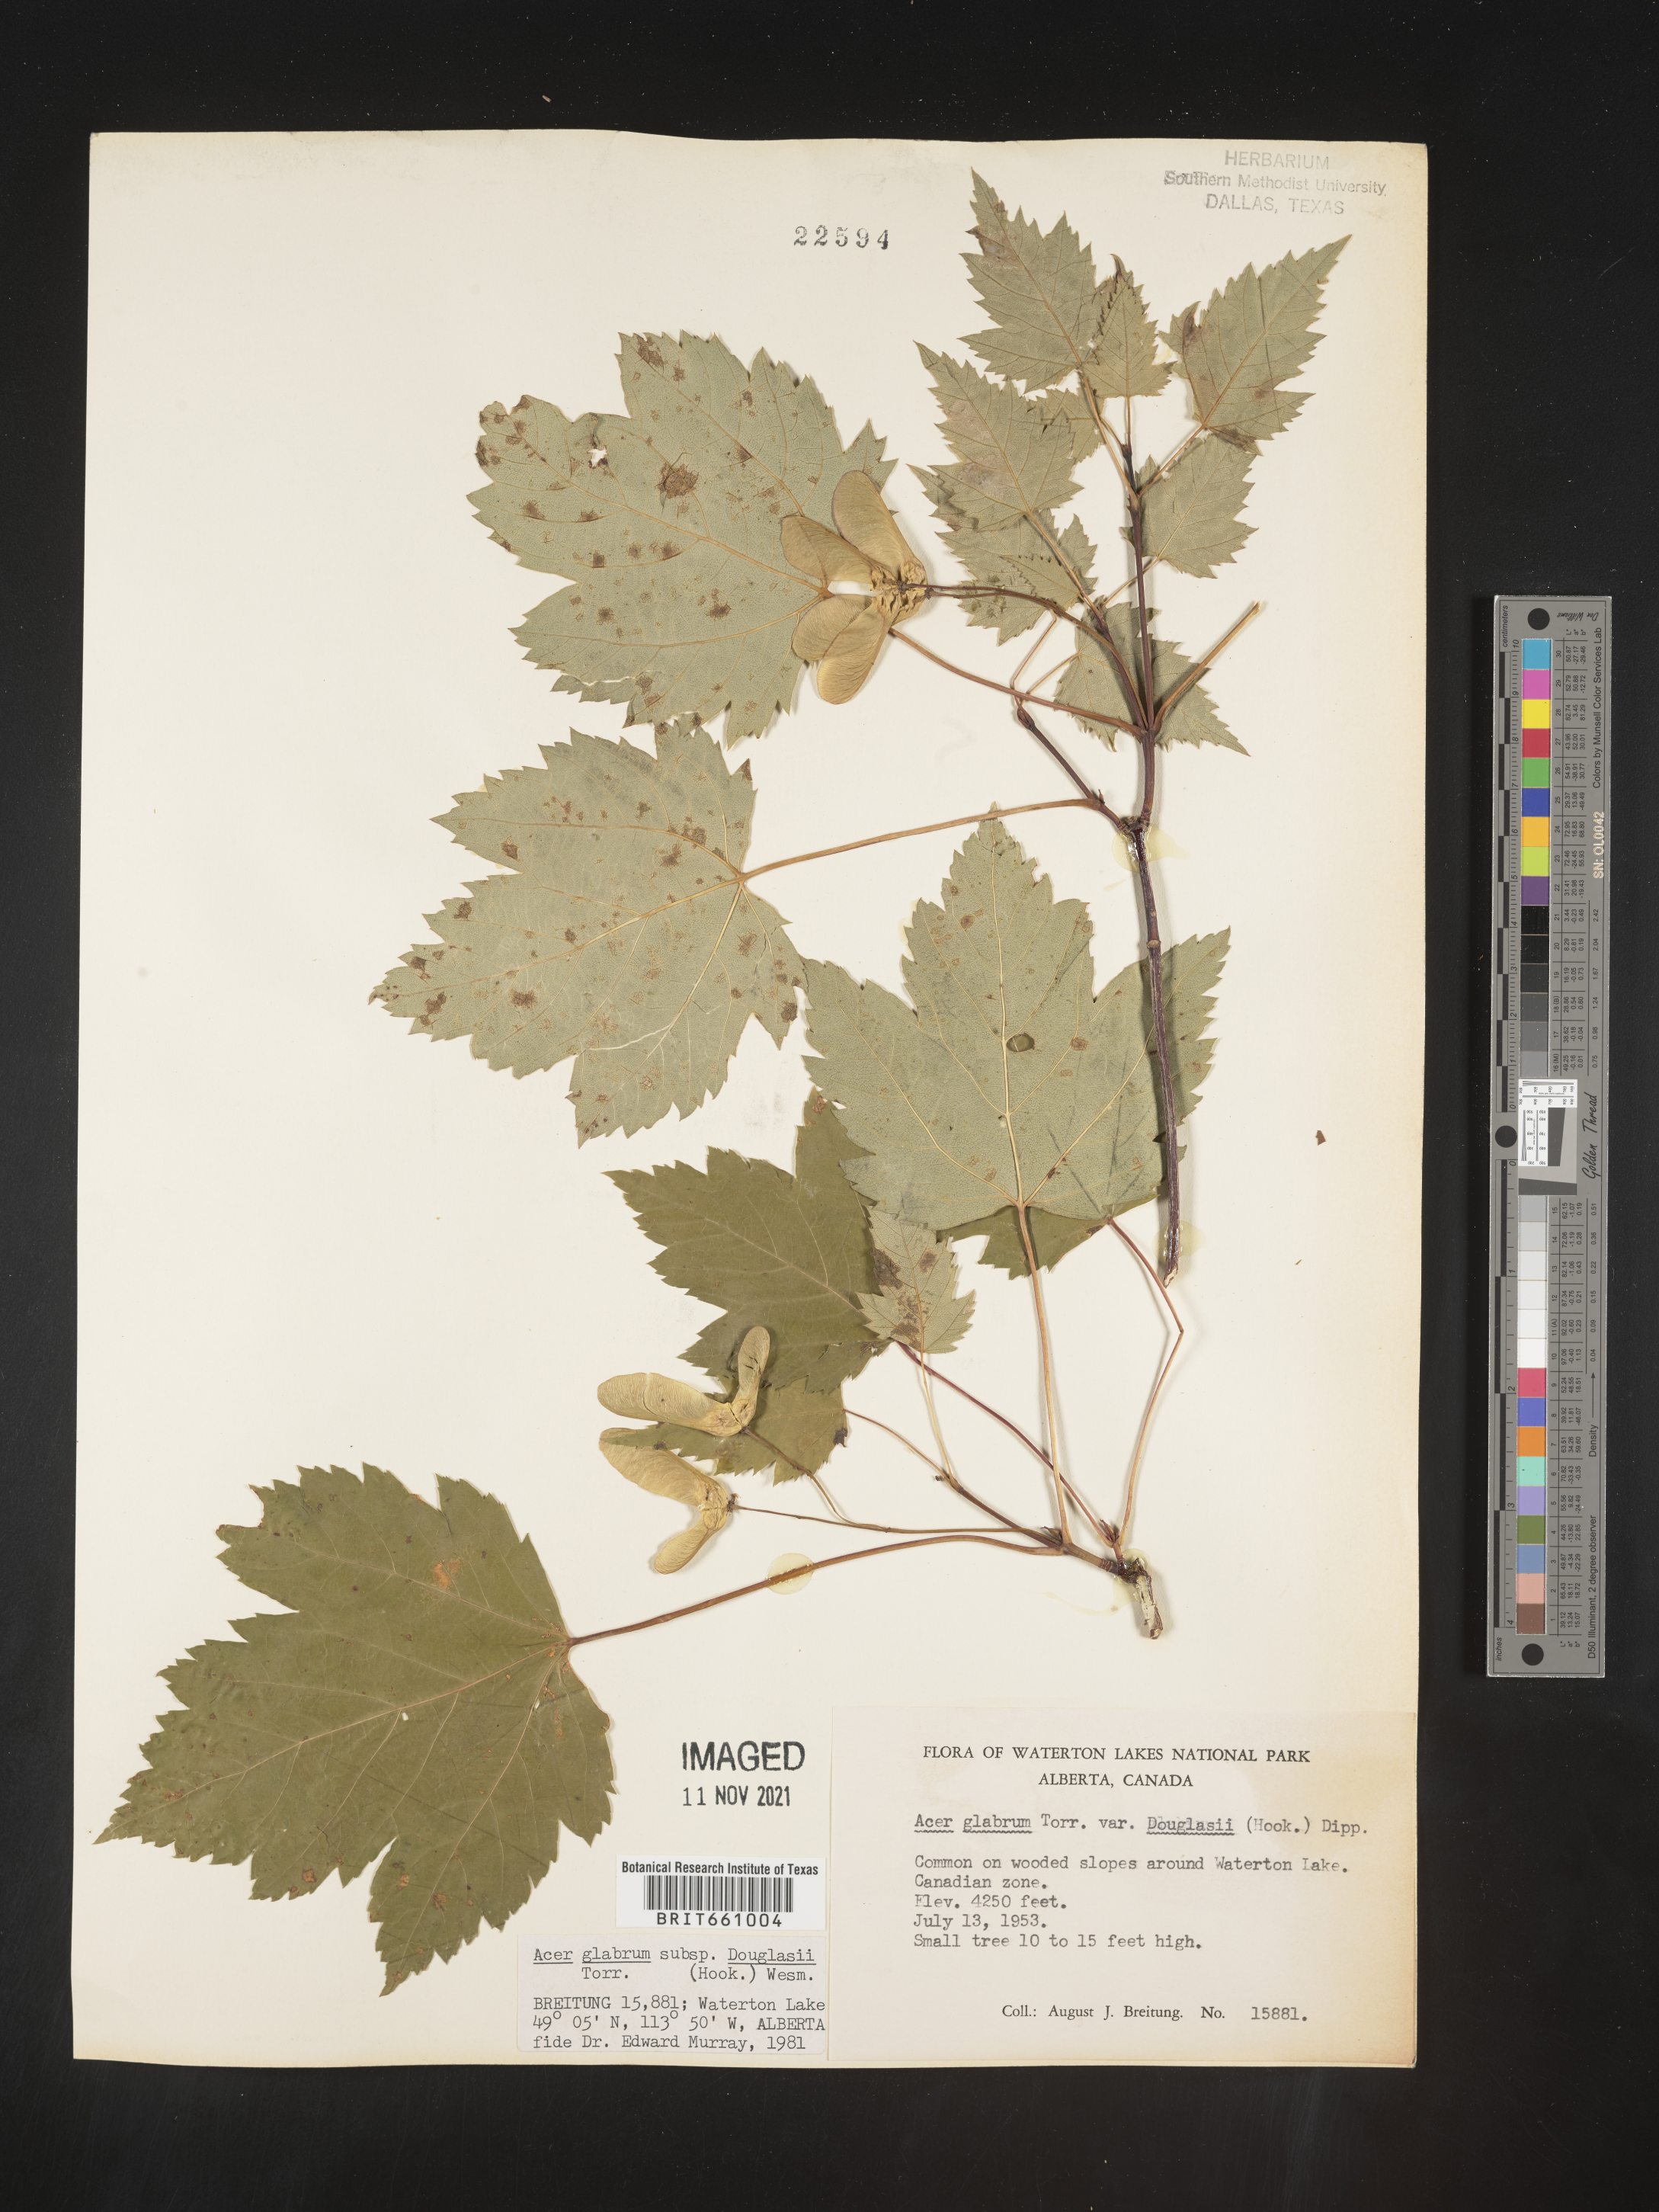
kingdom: Plantae
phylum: Tracheophyta
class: Magnoliopsida
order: Sapindales
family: Sapindaceae
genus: Acer
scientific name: Acer glabrum
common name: Rocky mountain maple
